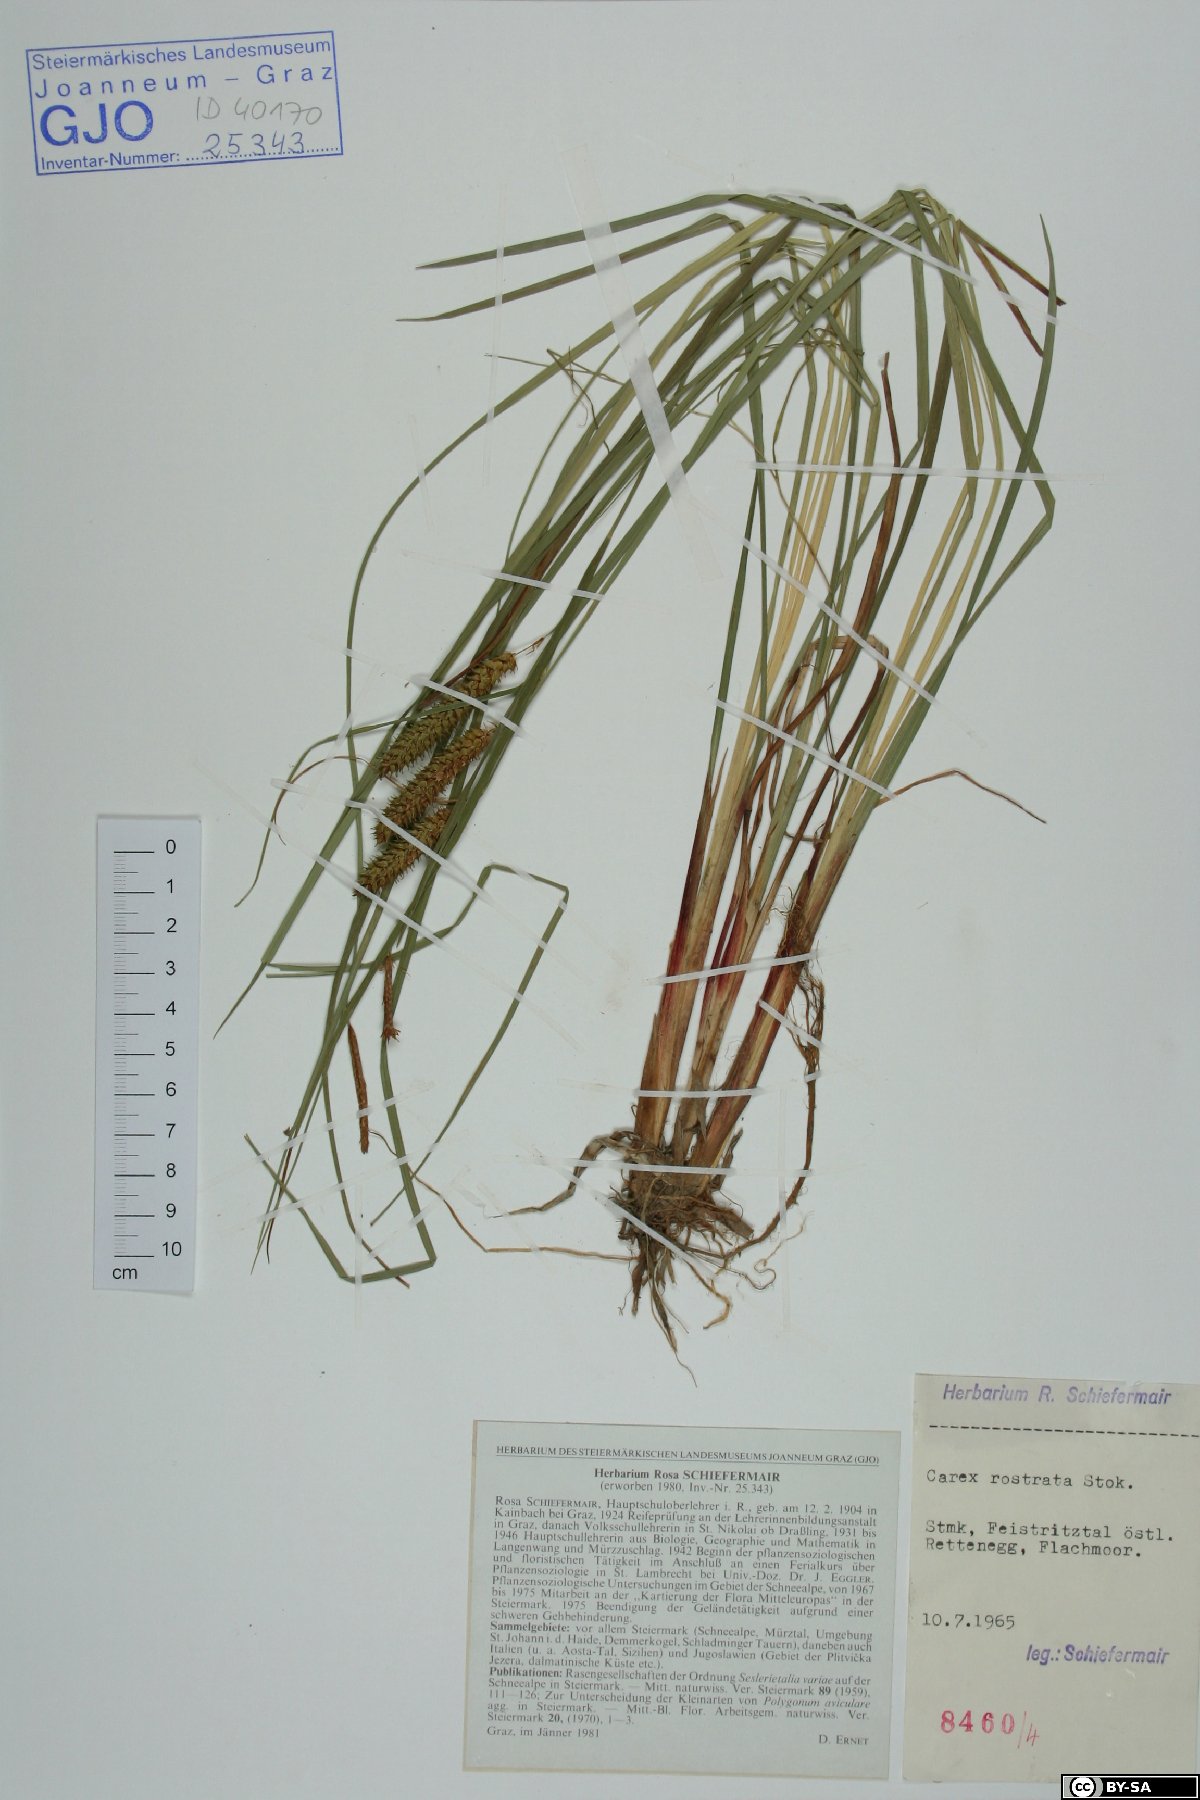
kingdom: Plantae
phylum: Tracheophyta
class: Liliopsida
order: Poales
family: Cyperaceae
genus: Carex
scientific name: Carex rostrata
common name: Bottle sedge
